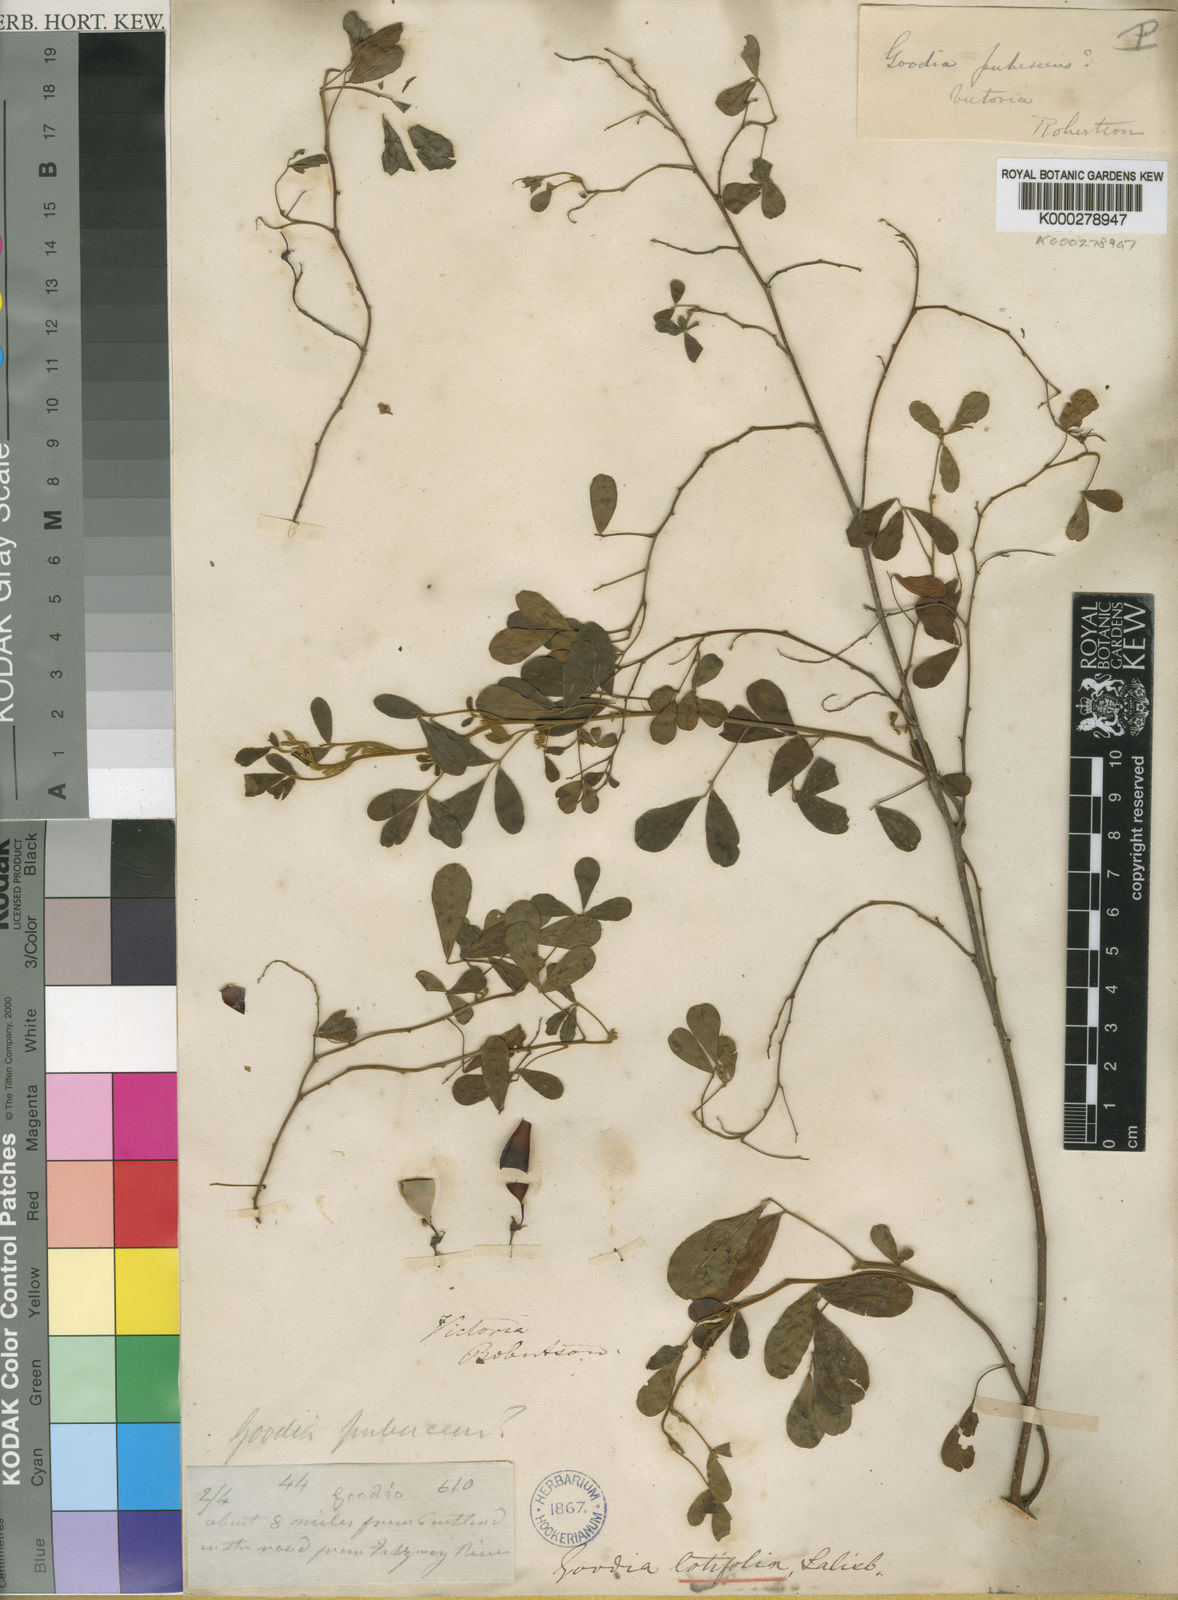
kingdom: Plantae
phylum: Tracheophyta
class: Magnoliopsida
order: Fabales
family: Fabaceae
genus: Goodia
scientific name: Goodia lotifolia
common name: Cloverleaf-poison
